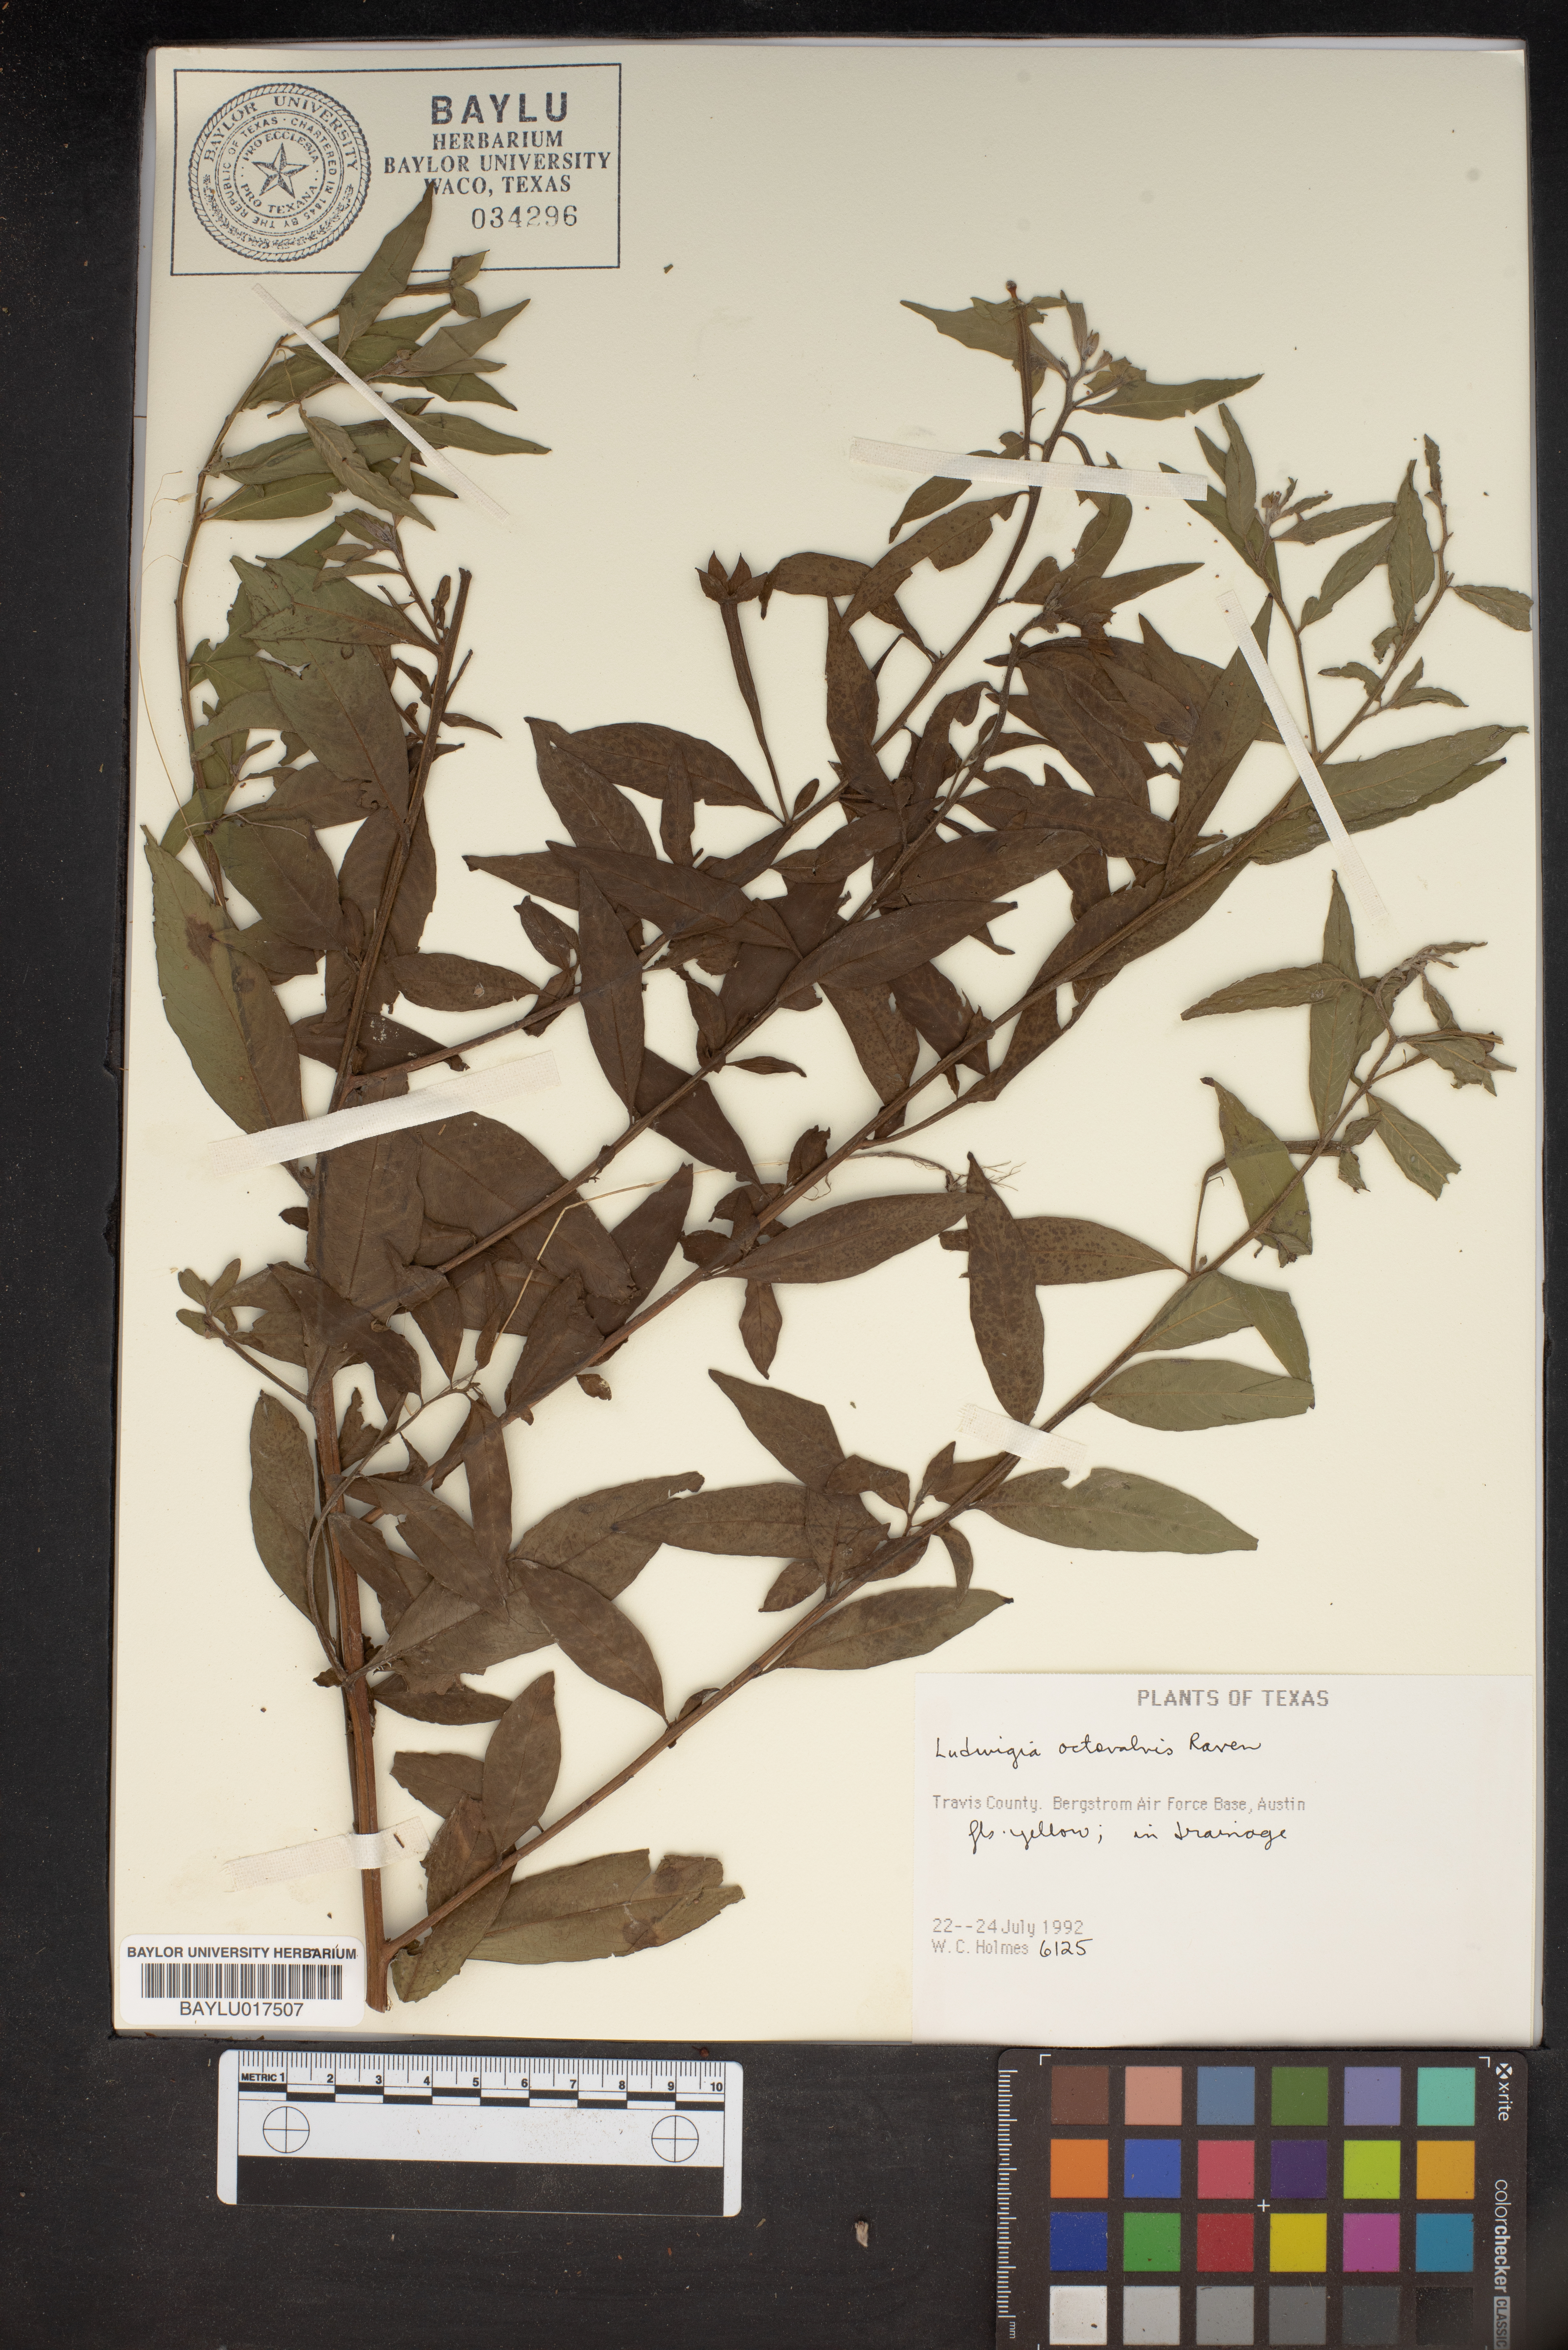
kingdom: Plantae
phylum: Tracheophyta
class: Magnoliopsida
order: Myrtales
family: Onagraceae
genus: Ludwigia
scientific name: Ludwigia octovalvis
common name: Water-primrose
